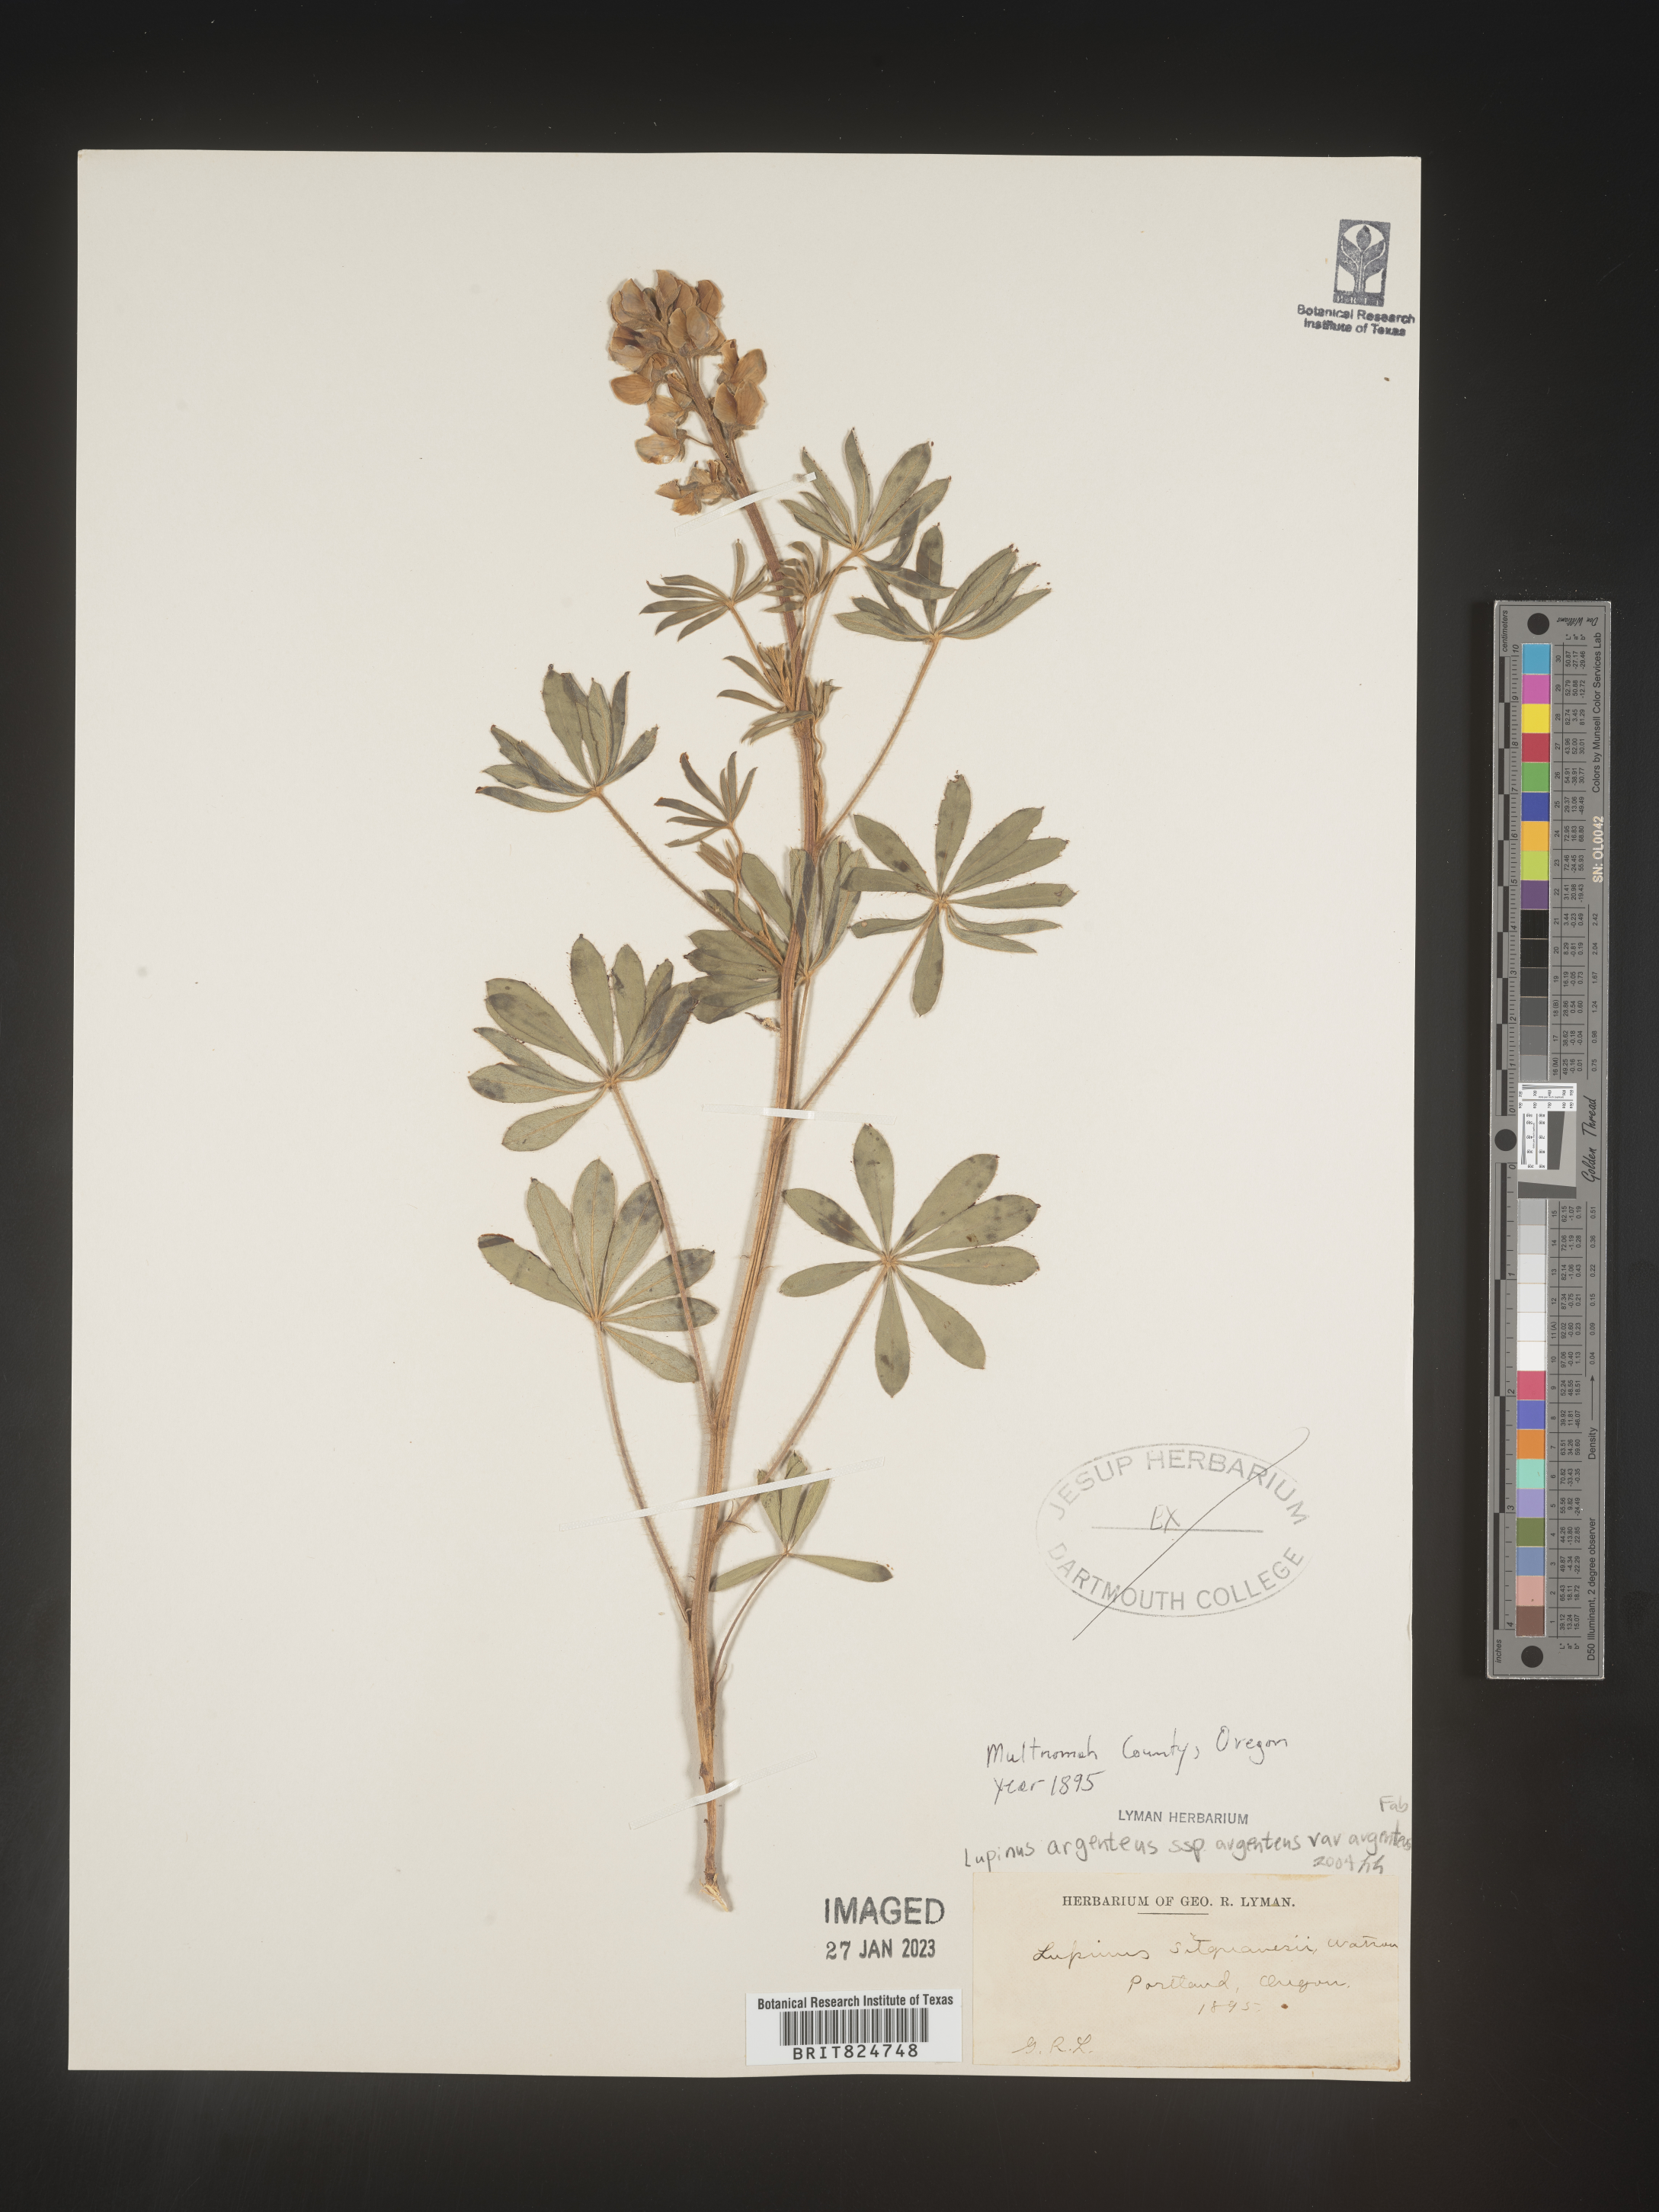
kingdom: Plantae
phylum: Tracheophyta
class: Magnoliopsida
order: Fabales
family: Fabaceae
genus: Lupinus
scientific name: Lupinus argenteus
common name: Silvery lupine
